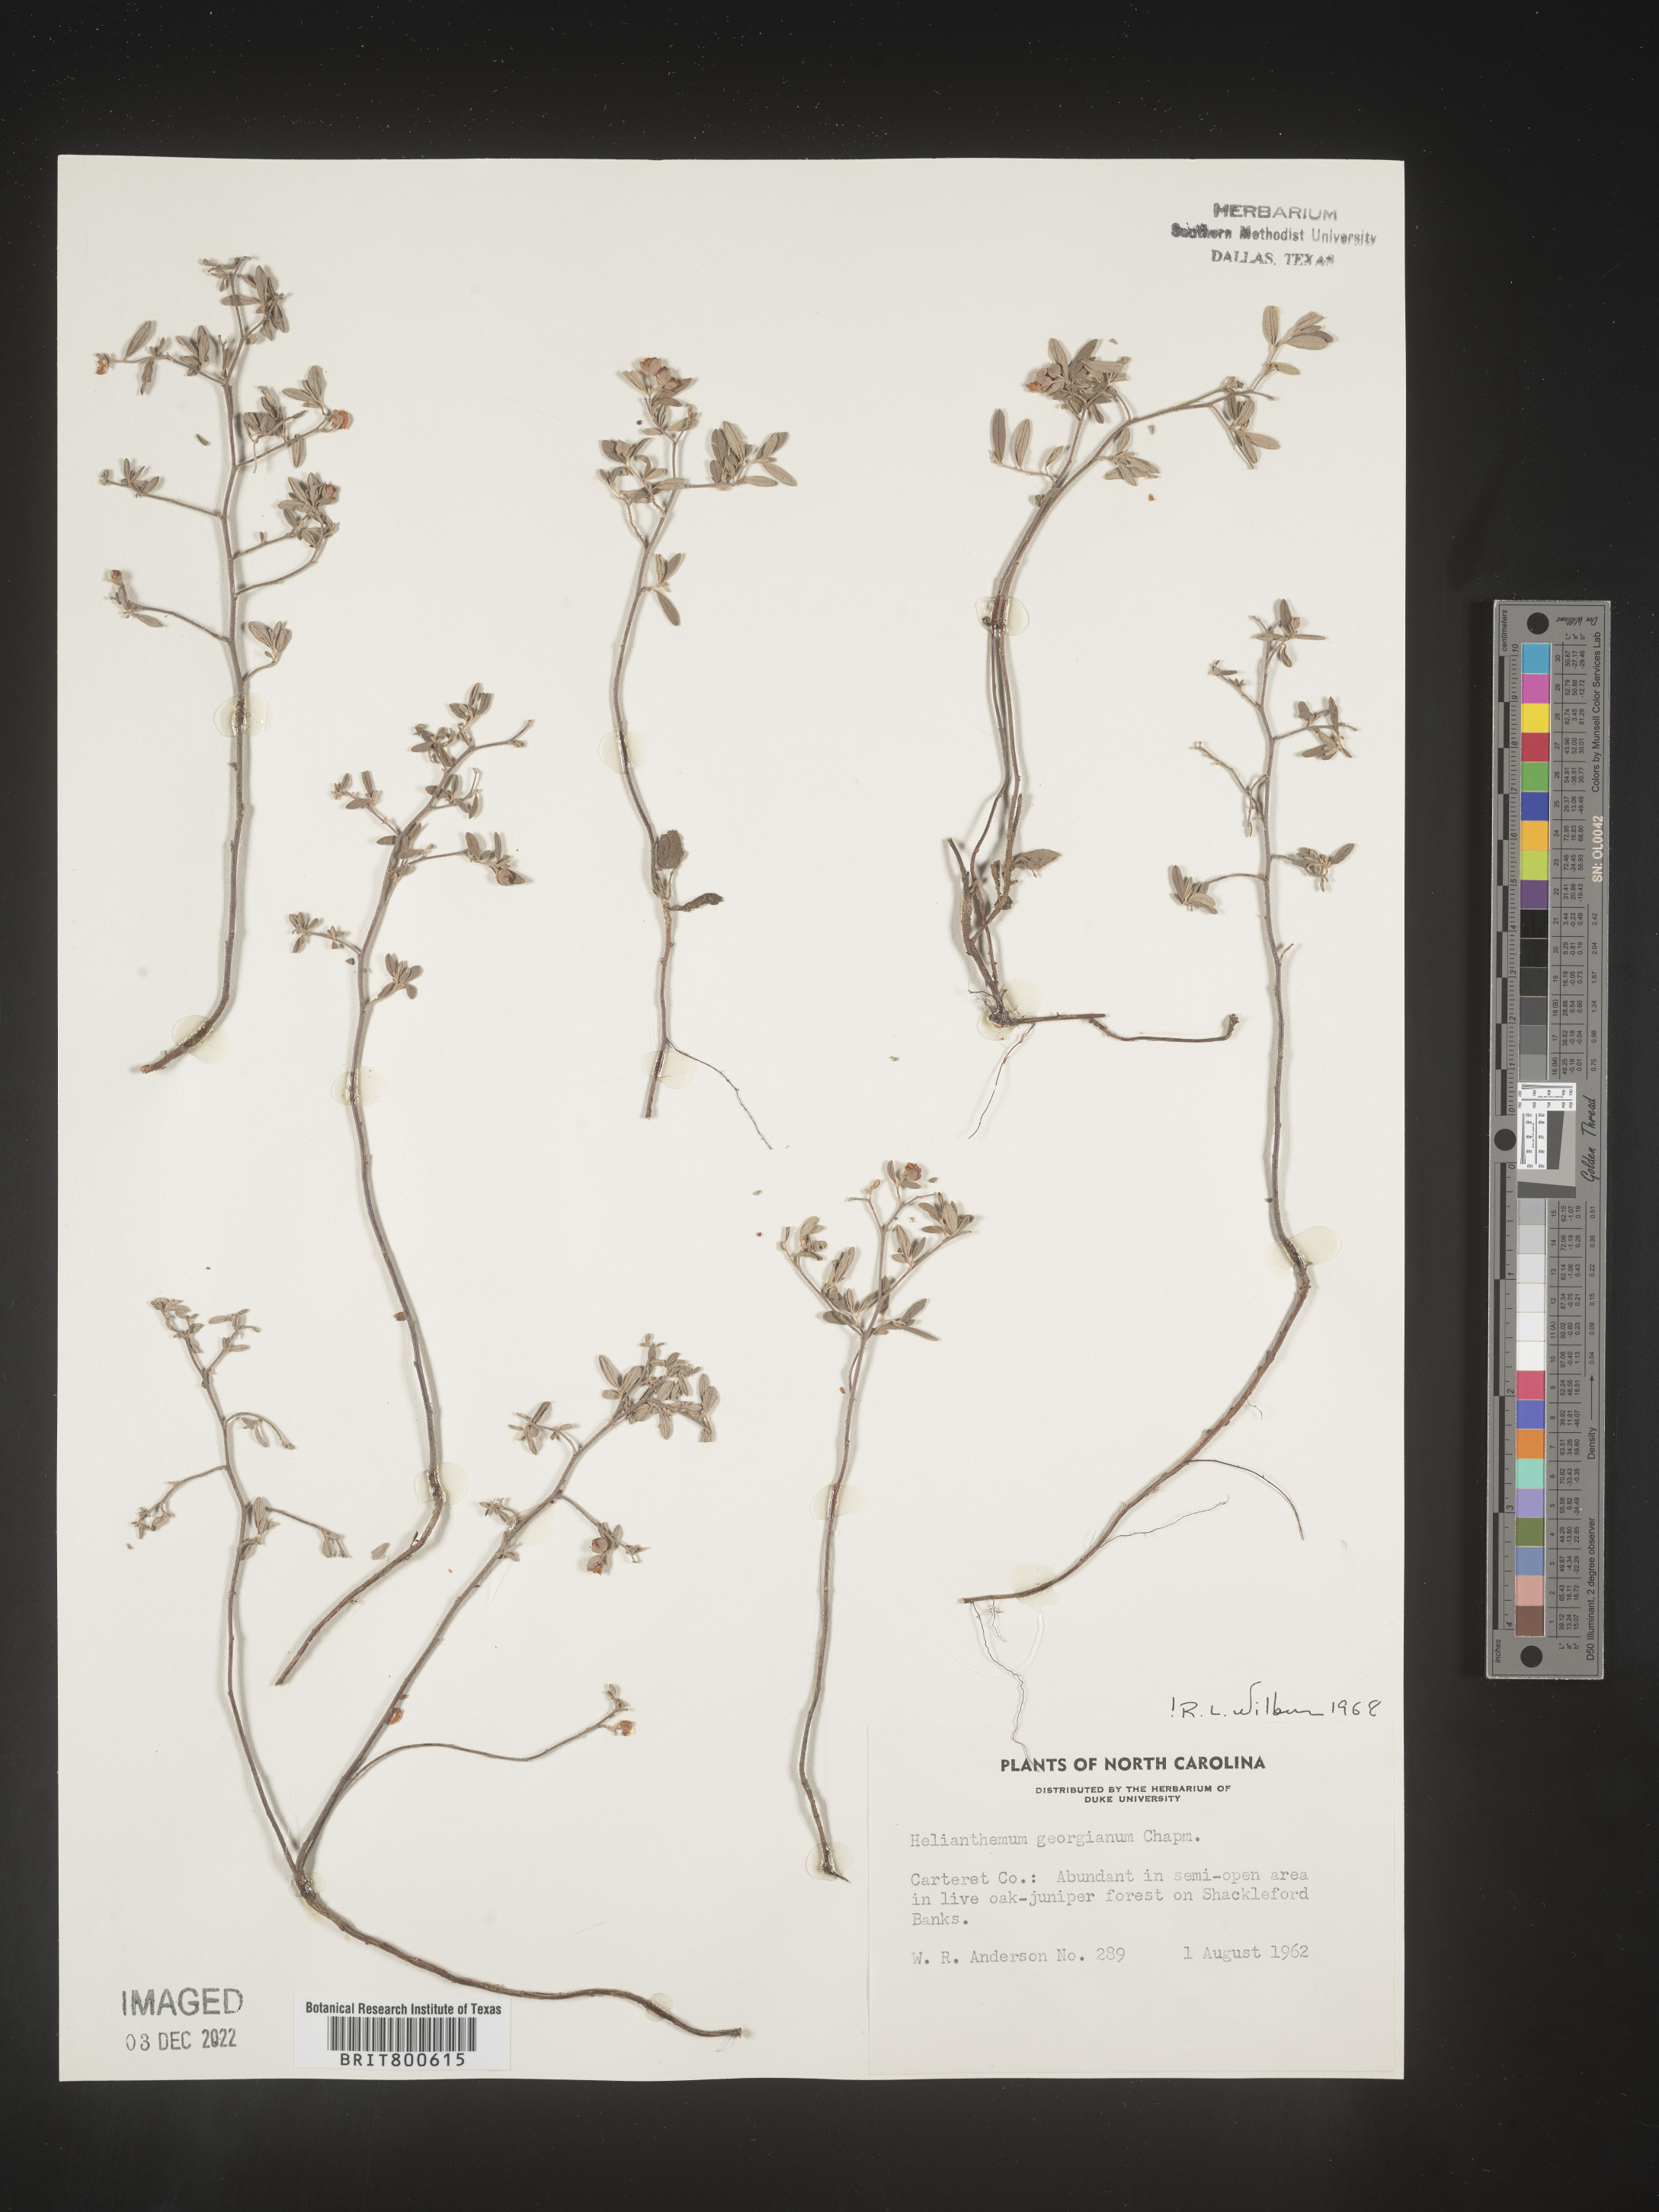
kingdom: Plantae
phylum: Tracheophyta
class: Magnoliopsida
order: Malvales
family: Cistaceae
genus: Crocanthemum
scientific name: Crocanthemum georgianum
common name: Georgia frostweed
